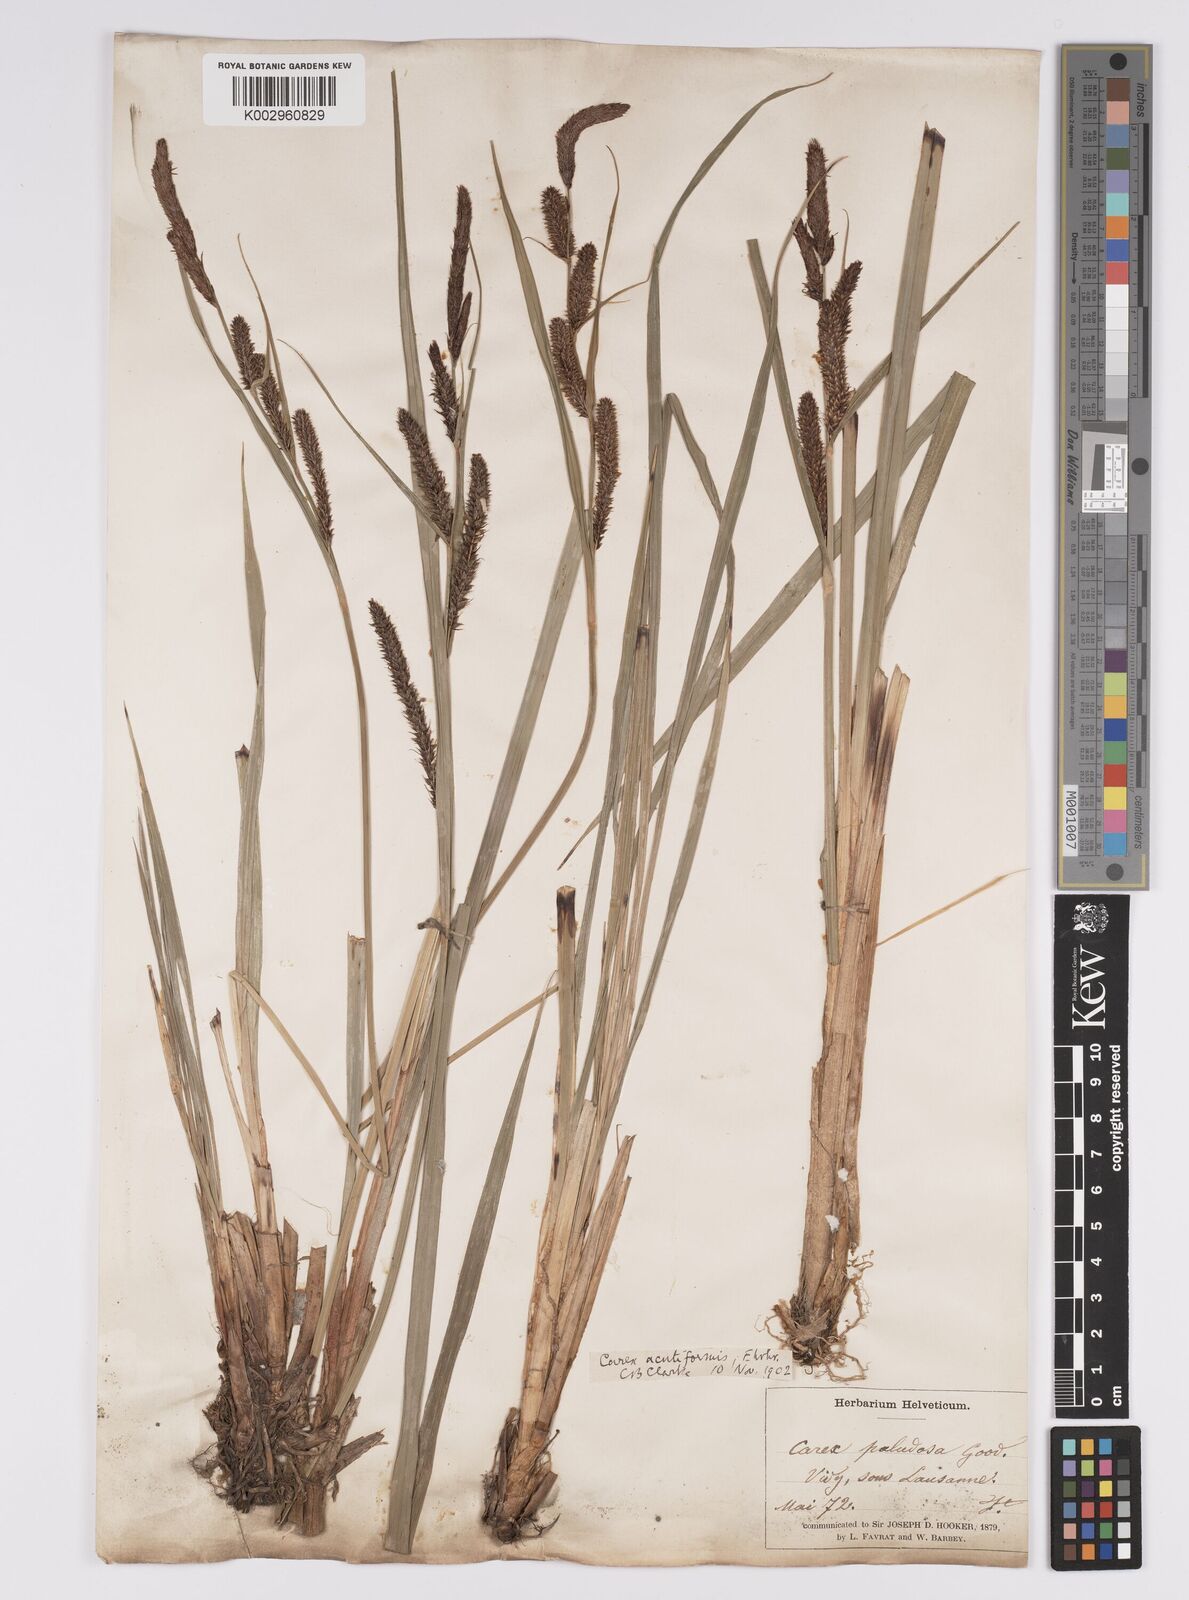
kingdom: Plantae
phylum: Tracheophyta
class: Liliopsida
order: Poales
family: Cyperaceae
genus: Carex
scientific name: Carex acutiformis
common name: Lesser pond-sedge
